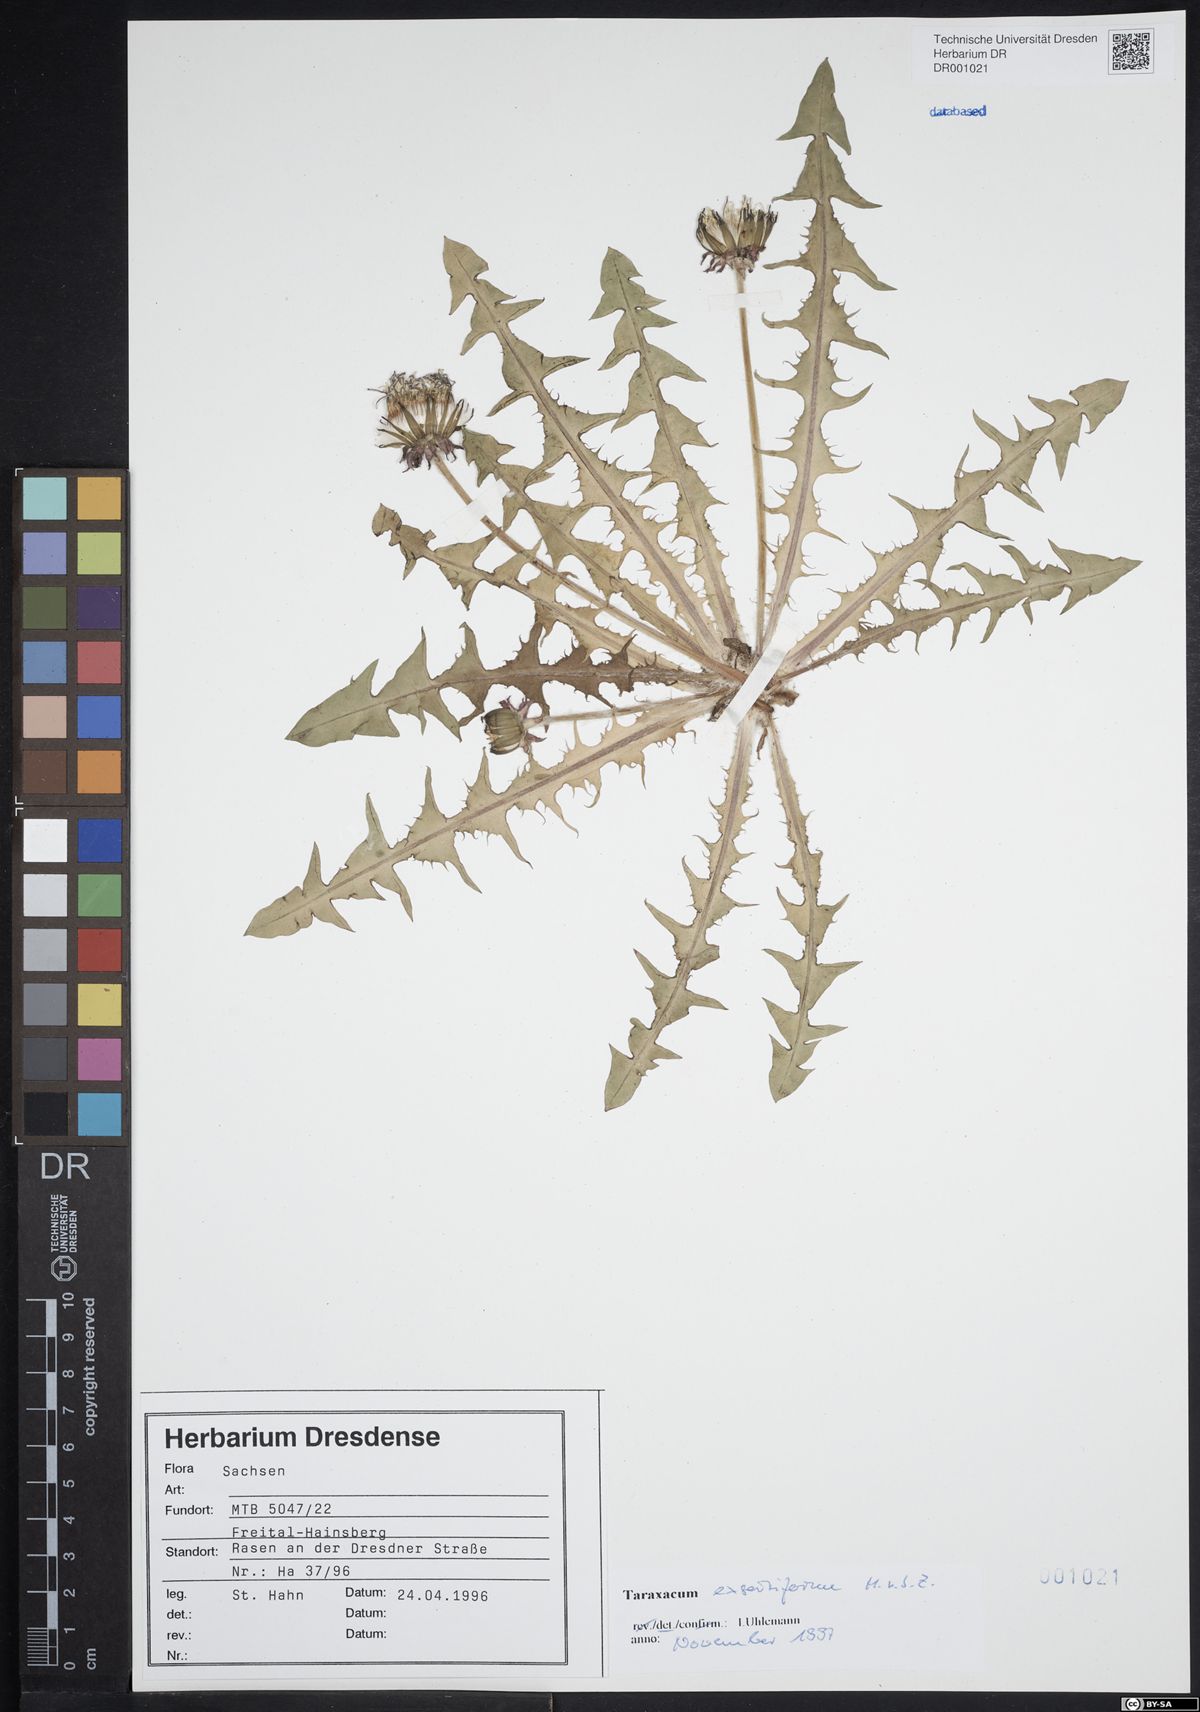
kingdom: Plantae
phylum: Tracheophyta
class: Magnoliopsida
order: Asterales
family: Asteraceae
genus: Taraxacum
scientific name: Taraxacum exsertiforme
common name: Erect-bracted dandelion
